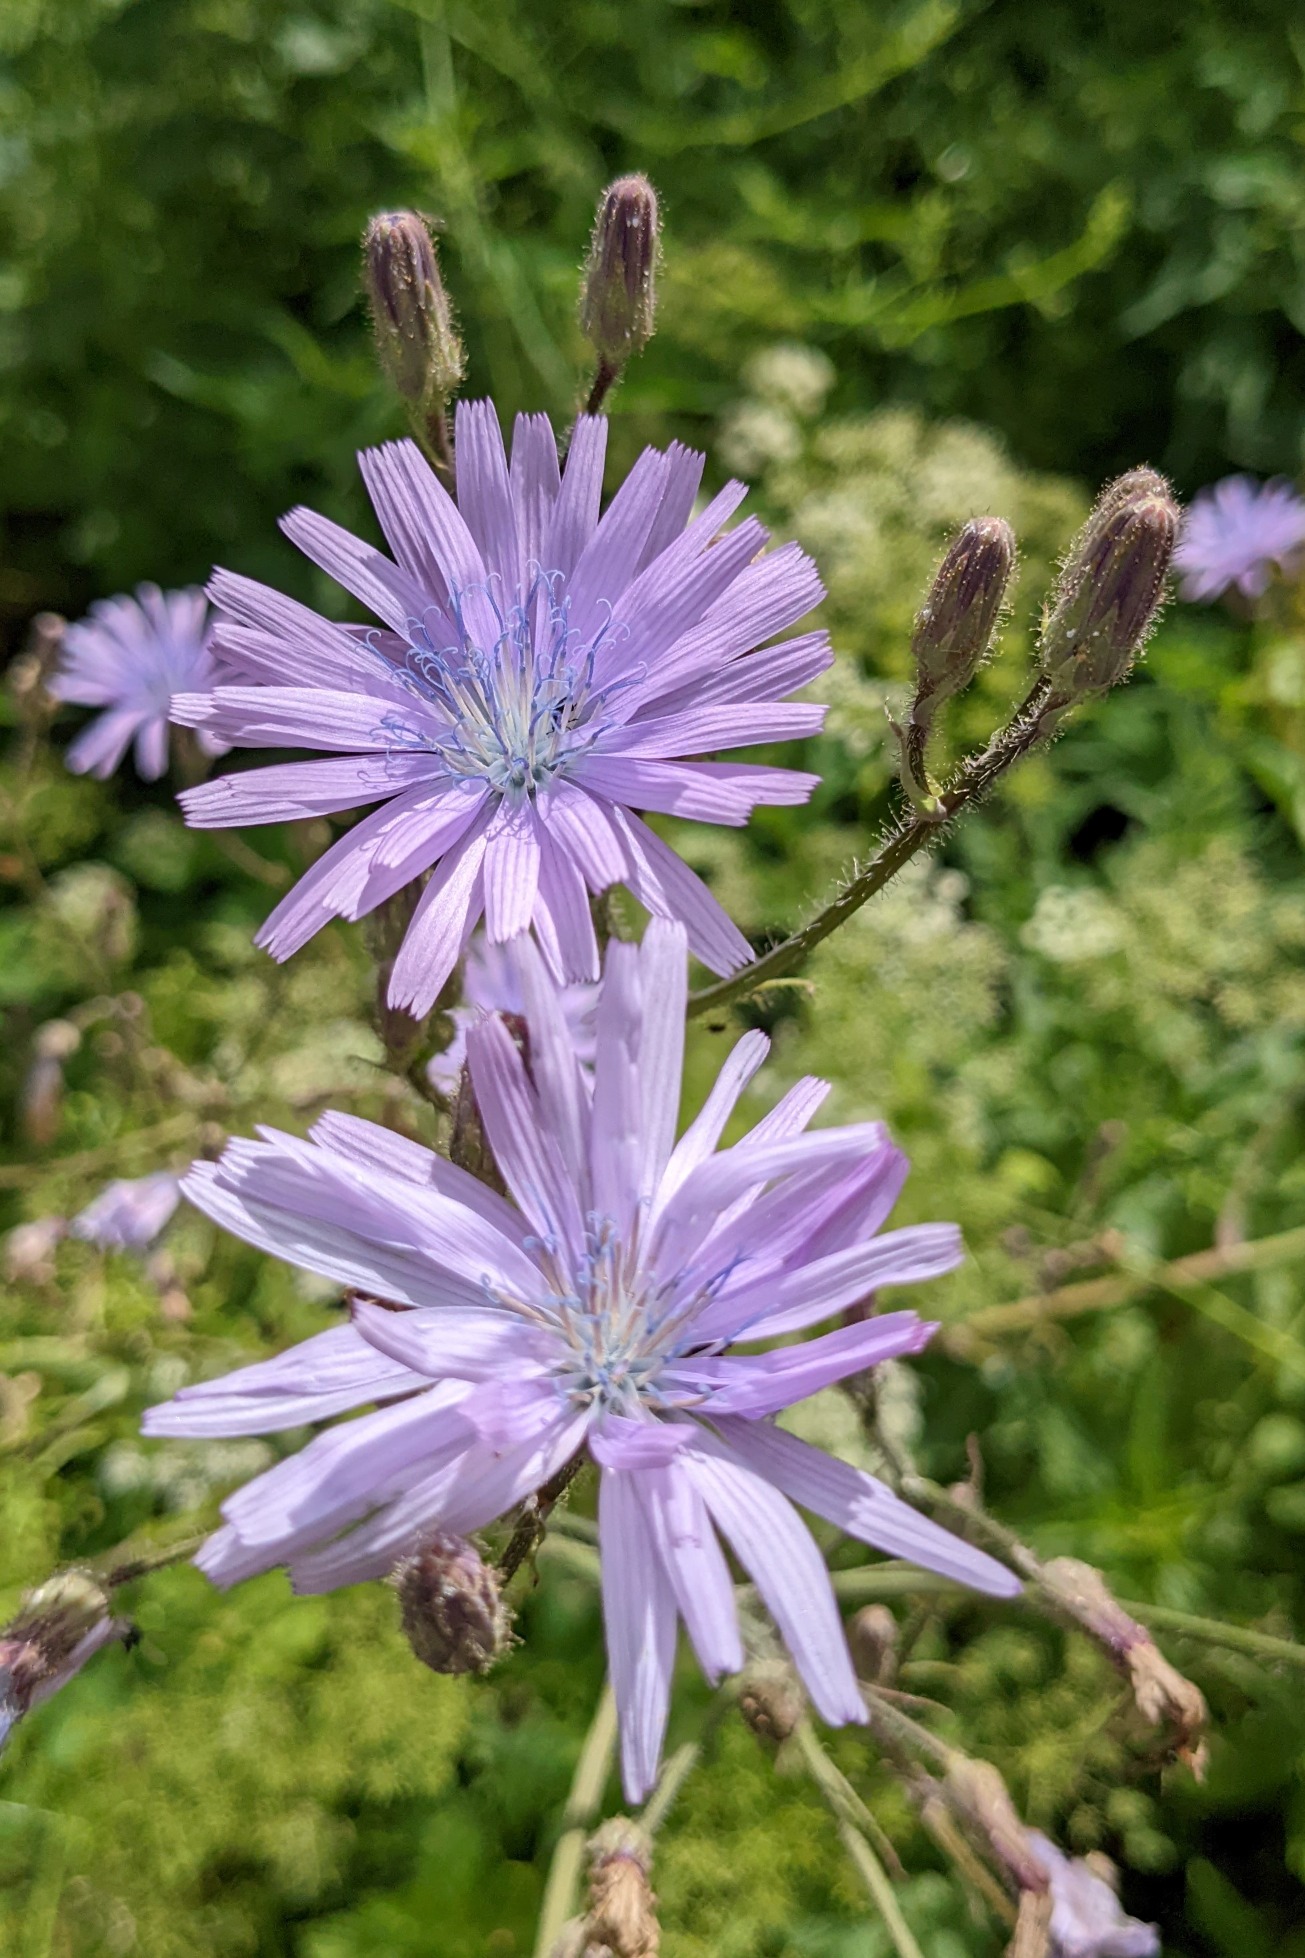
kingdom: Plantae
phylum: Tracheophyta
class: Magnoliopsida
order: Asterales
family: Asteraceae
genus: Lactuca
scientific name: Lactuca macrophylla
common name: Kæmpe-salat
